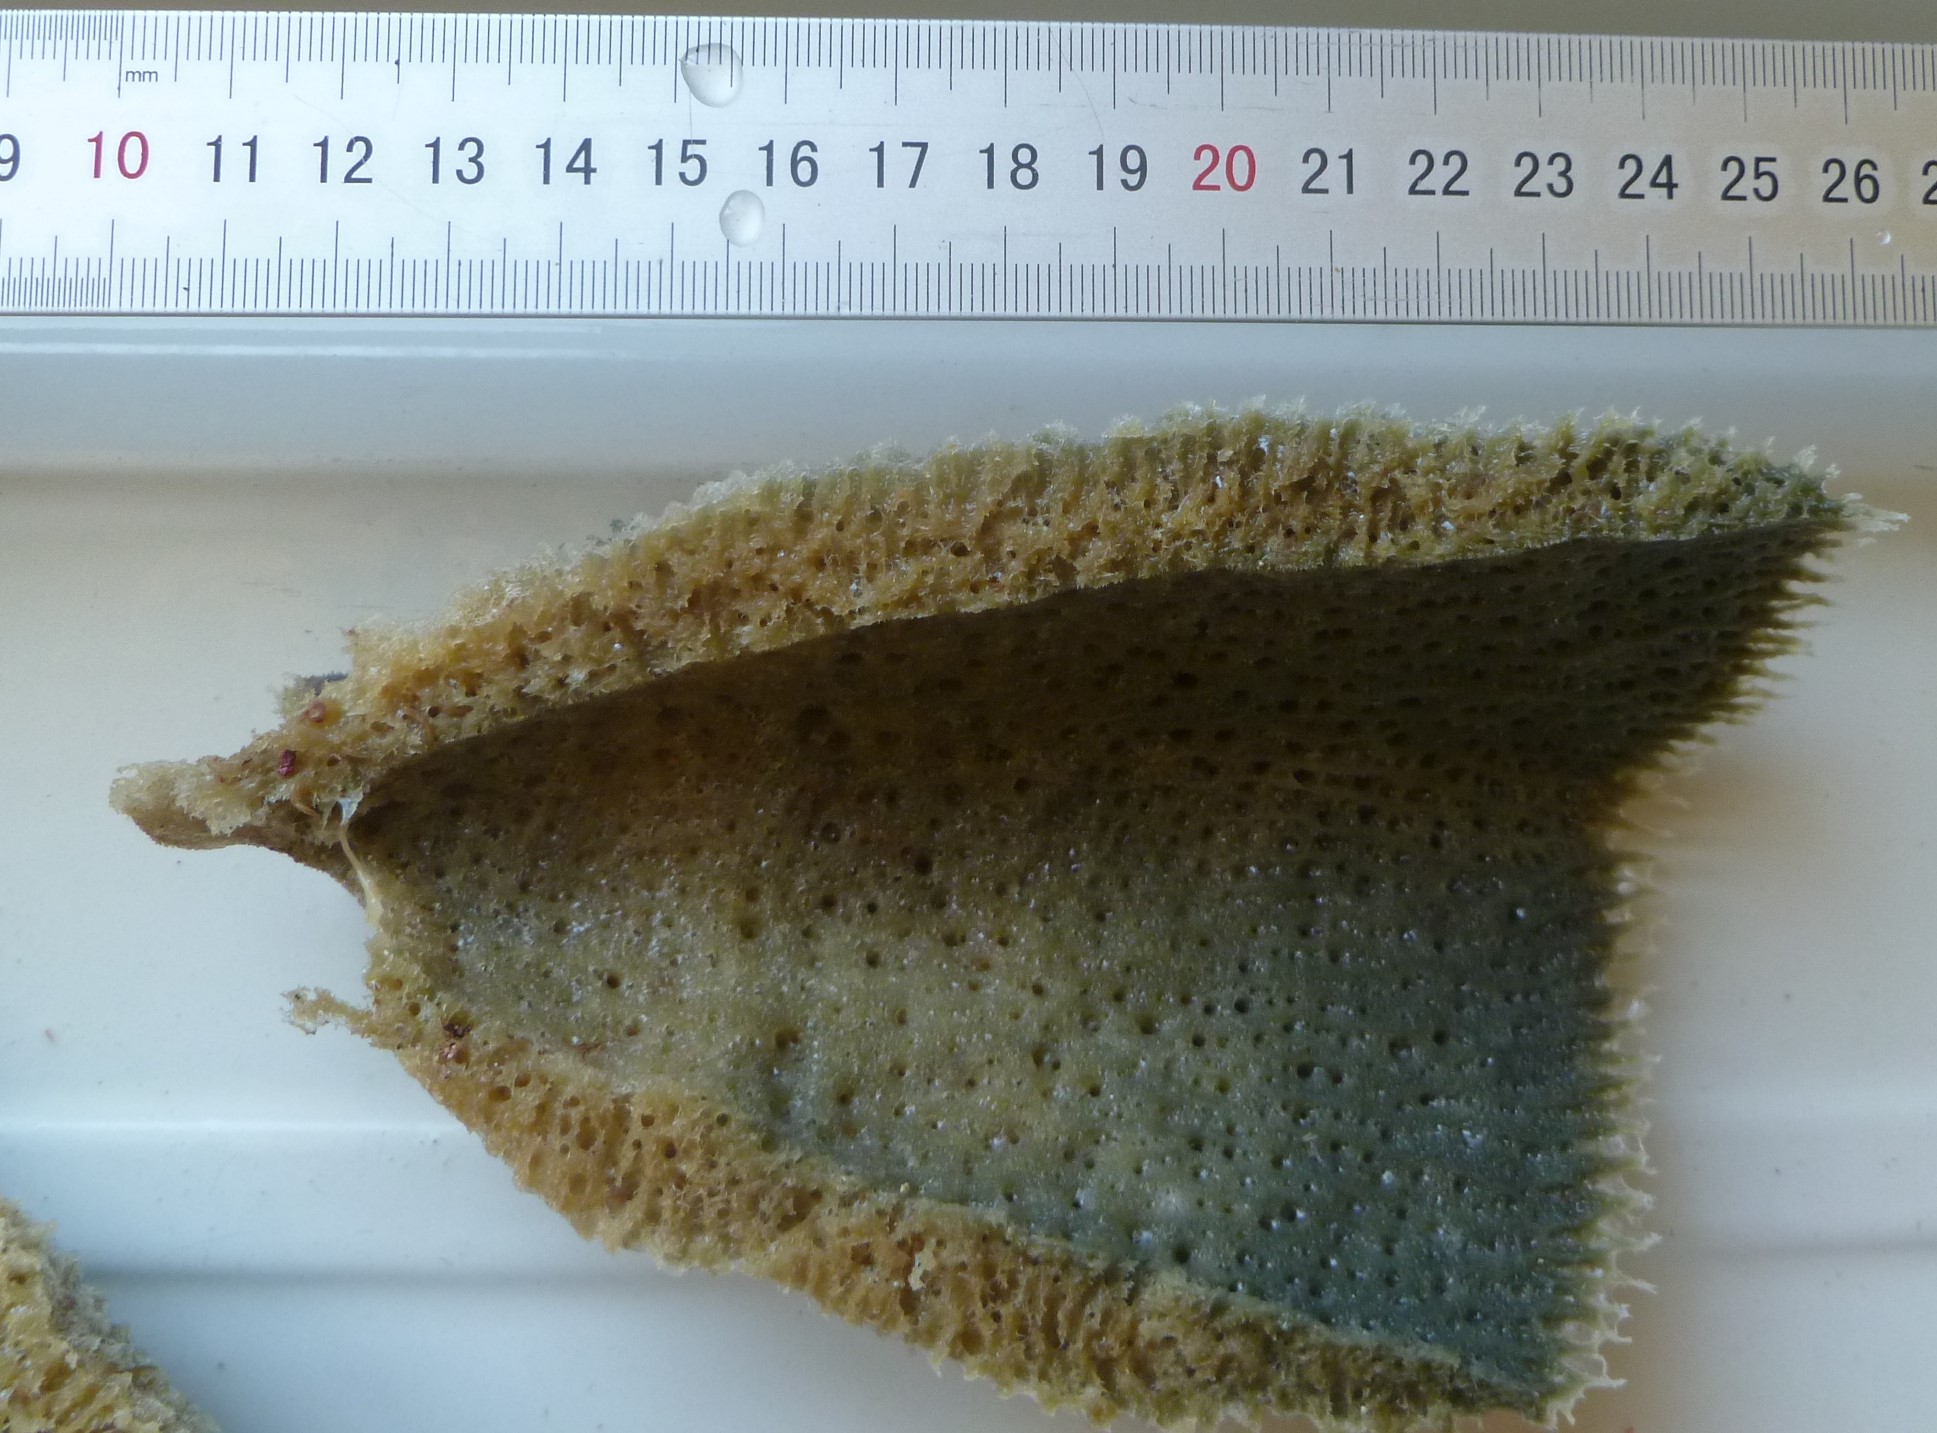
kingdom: Animalia
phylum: Porifera
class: Demospongiae
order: Haplosclerida
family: Niphatidae
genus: Niphates
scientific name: Niphates digitalis
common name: Pink vase sponge
